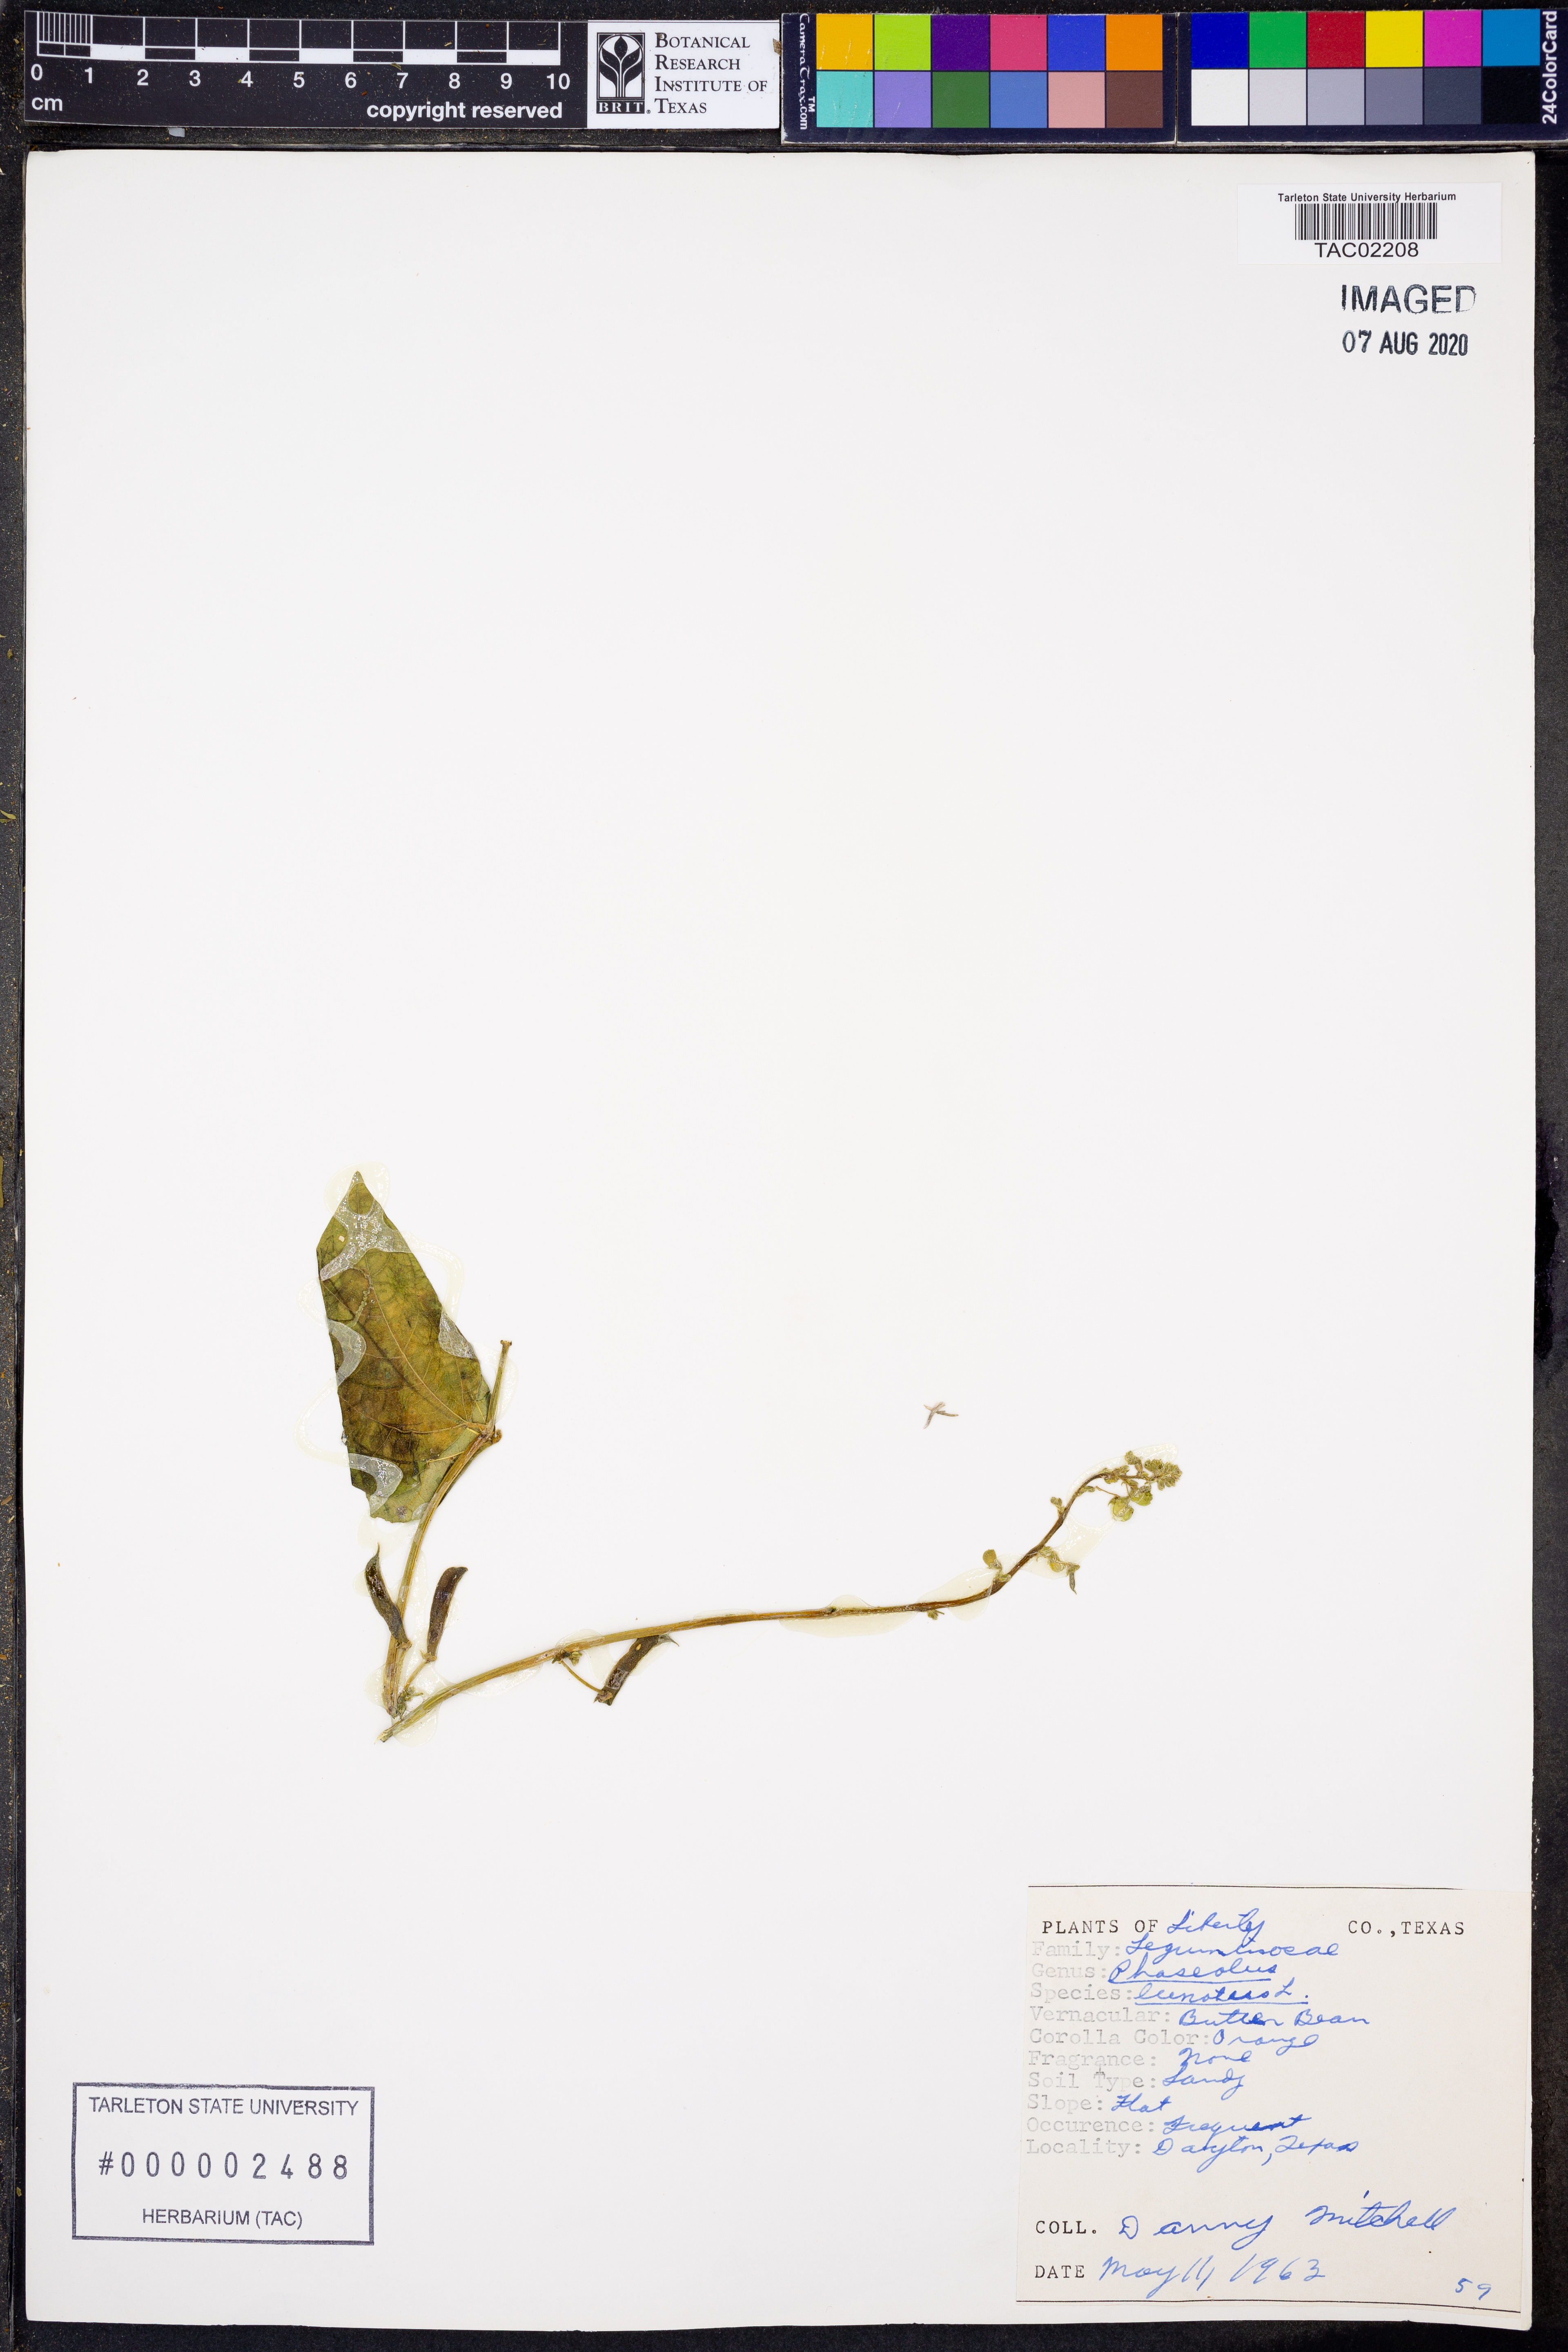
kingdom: Plantae
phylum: Tracheophyta
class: Magnoliopsida
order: Fabales
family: Fabaceae
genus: Phaseolus
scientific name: Phaseolus lunatus
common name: Sieva bean
